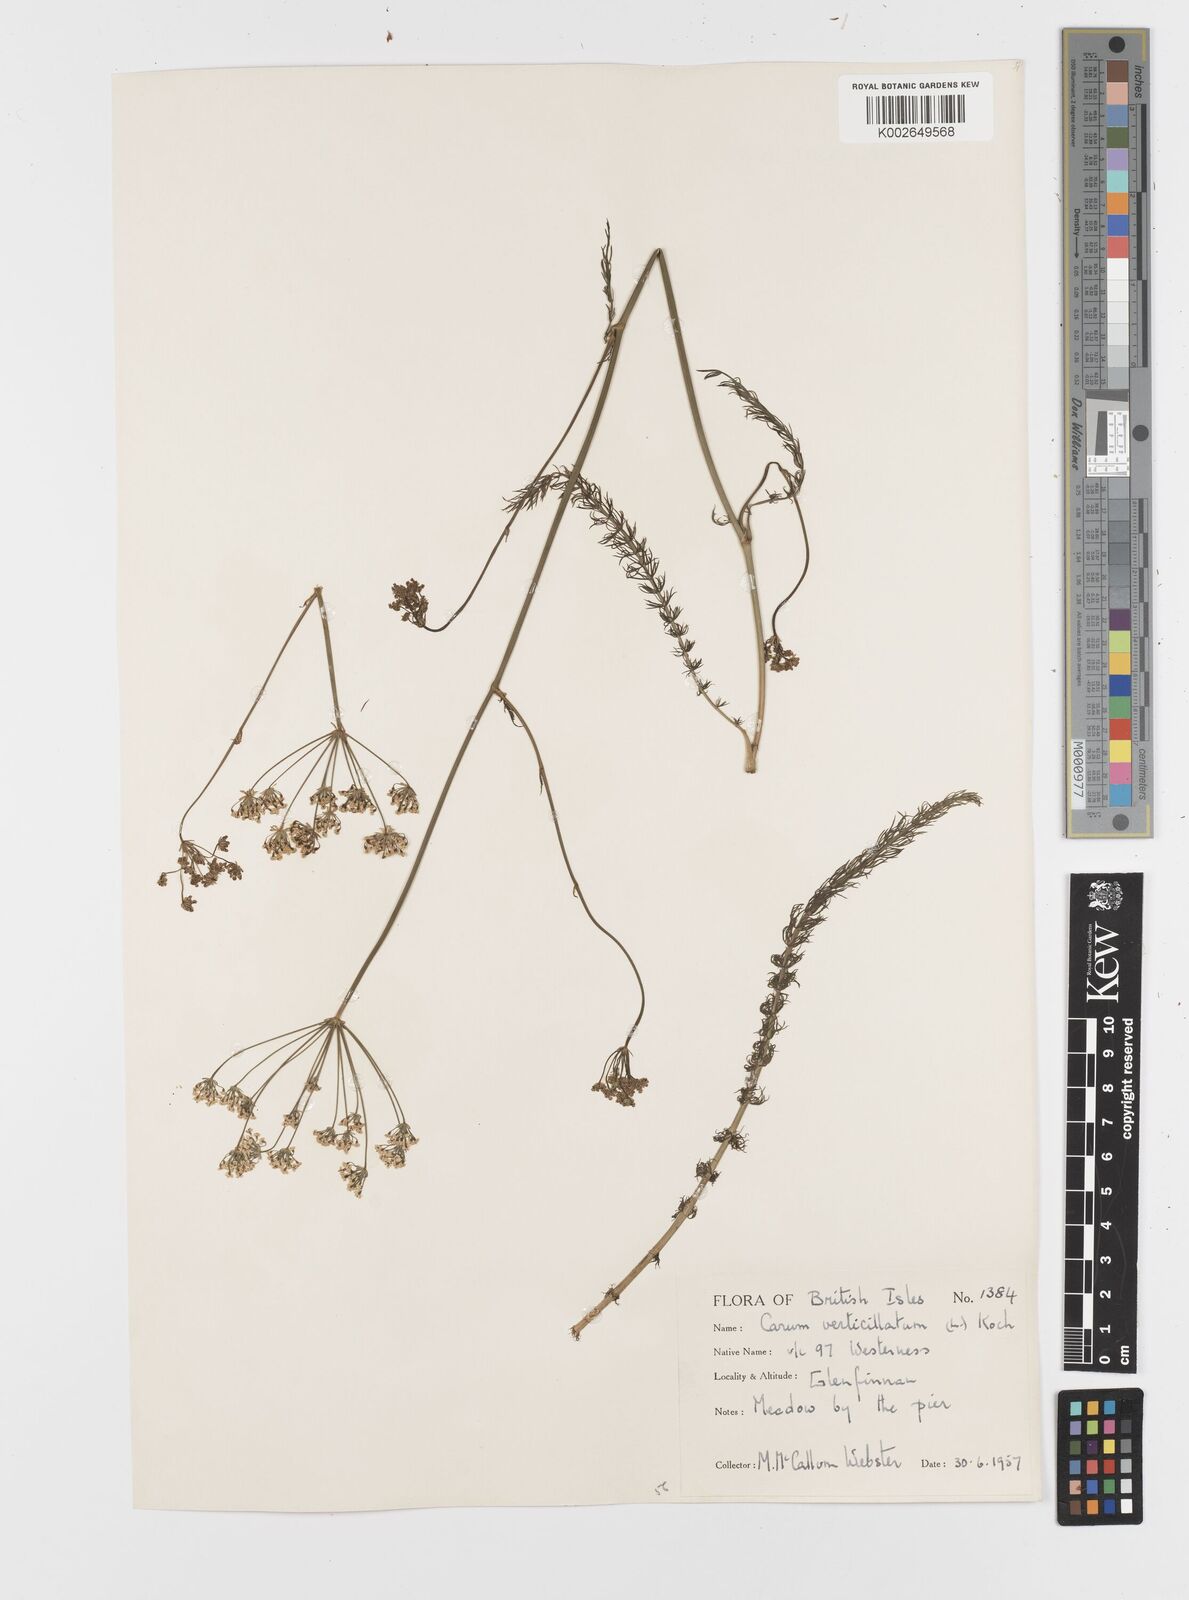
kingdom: Plantae
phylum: Tracheophyta
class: Magnoliopsida
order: Apiales
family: Apiaceae
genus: Trocdaris
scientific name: Trocdaris verticillatum
